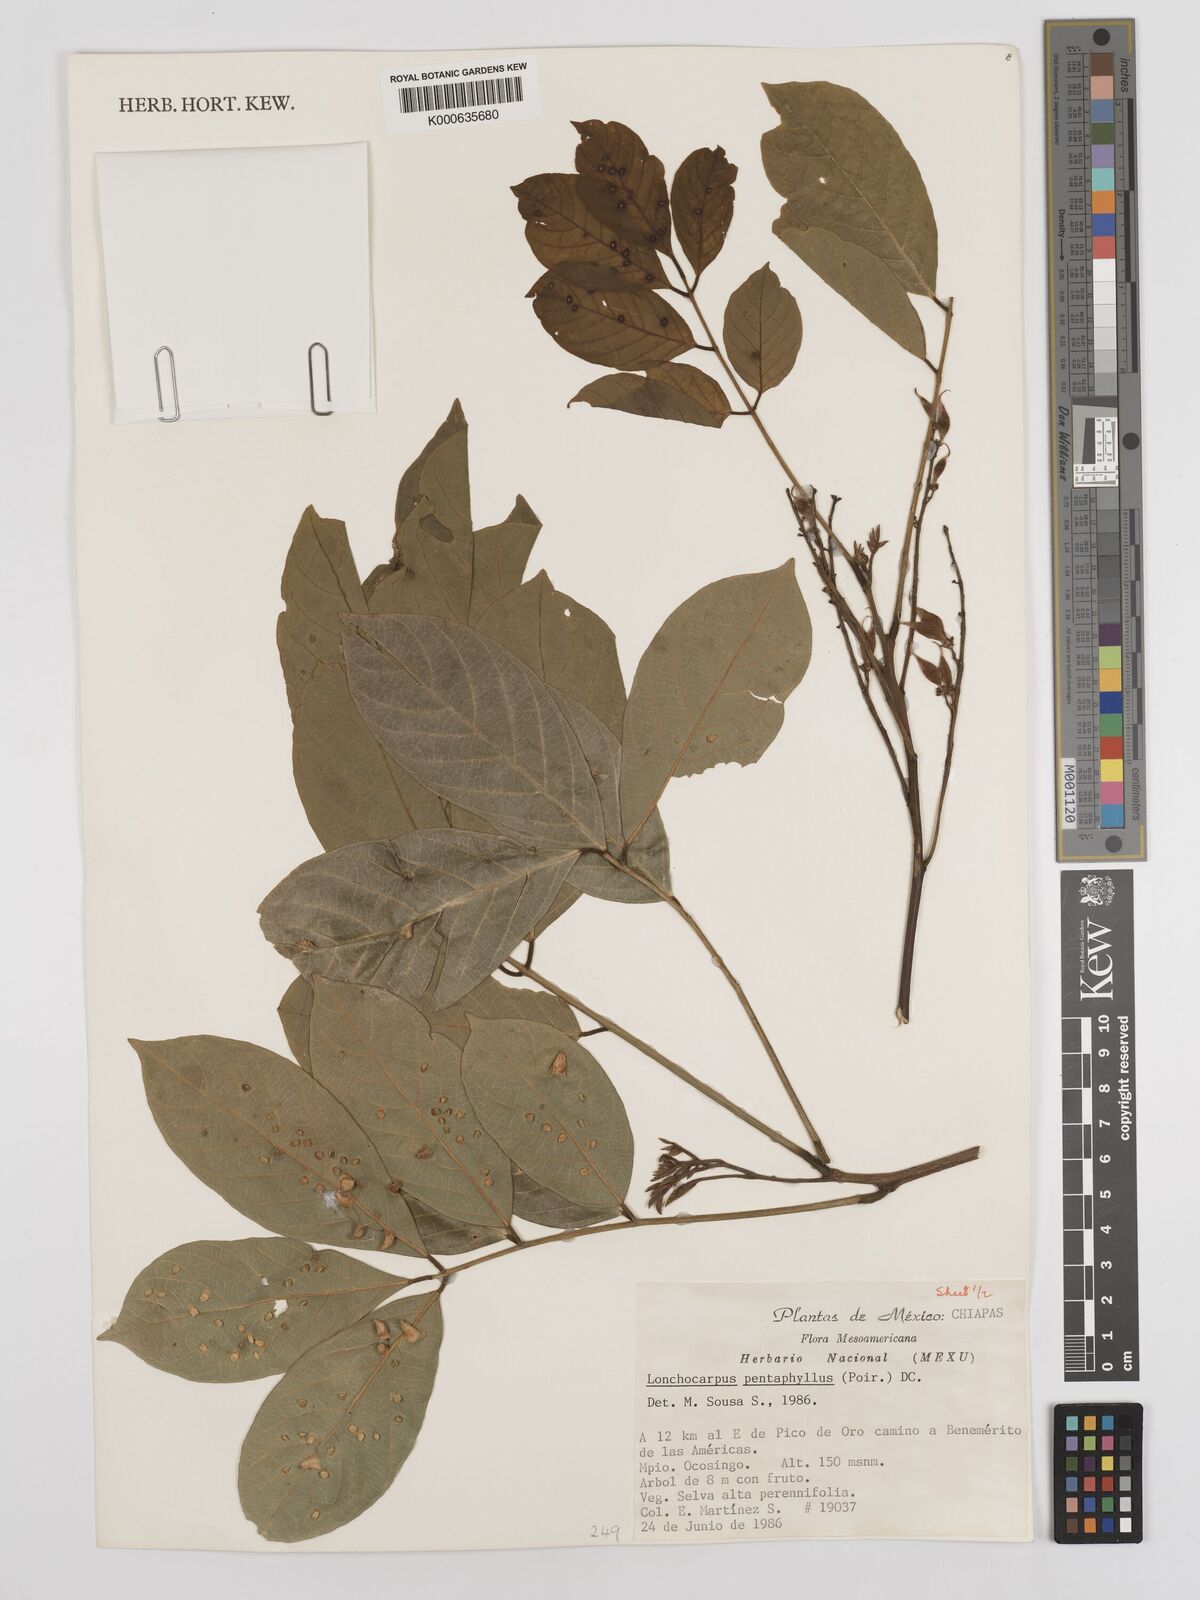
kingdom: Plantae
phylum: Tracheophyta
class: Magnoliopsida
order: Fabales
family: Fabaceae
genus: Lonchocarpus
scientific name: Lonchocarpus
